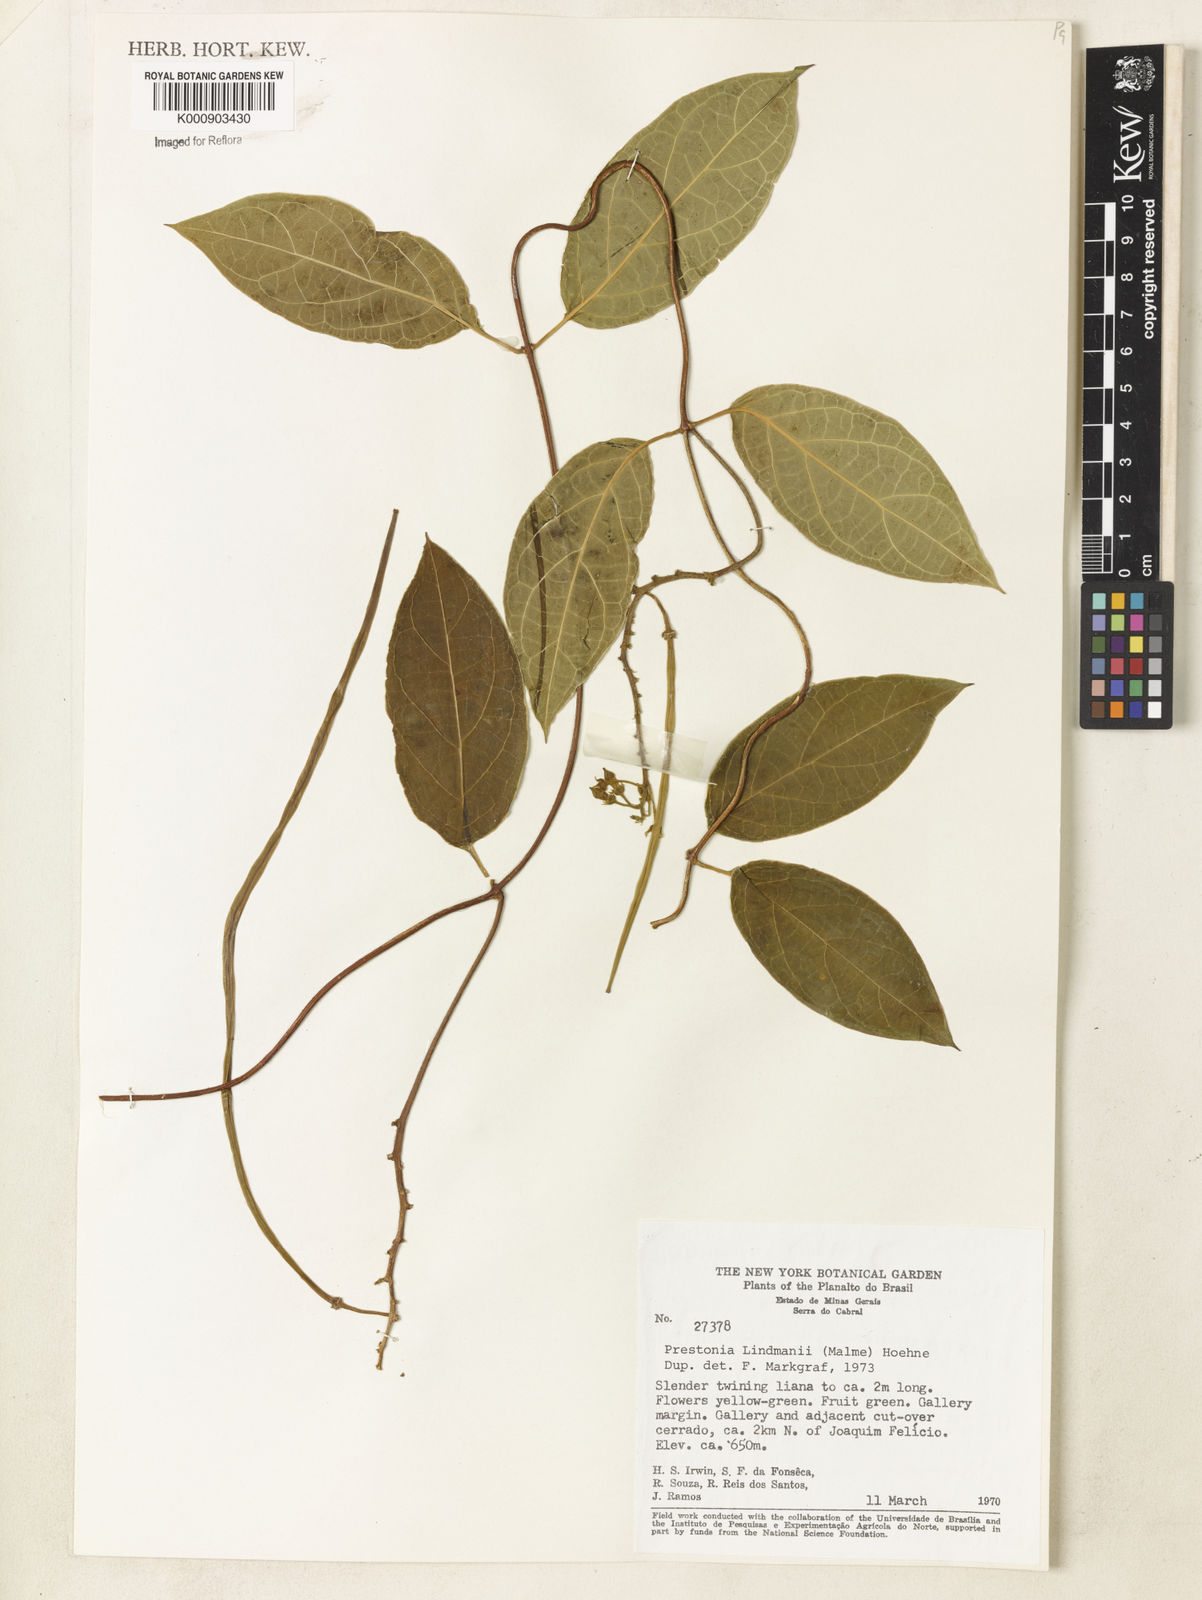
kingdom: Plantae
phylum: Tracheophyta
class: Magnoliopsida
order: Gentianales
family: Apocynaceae
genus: Prestonia
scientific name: Prestonia lindmanii
